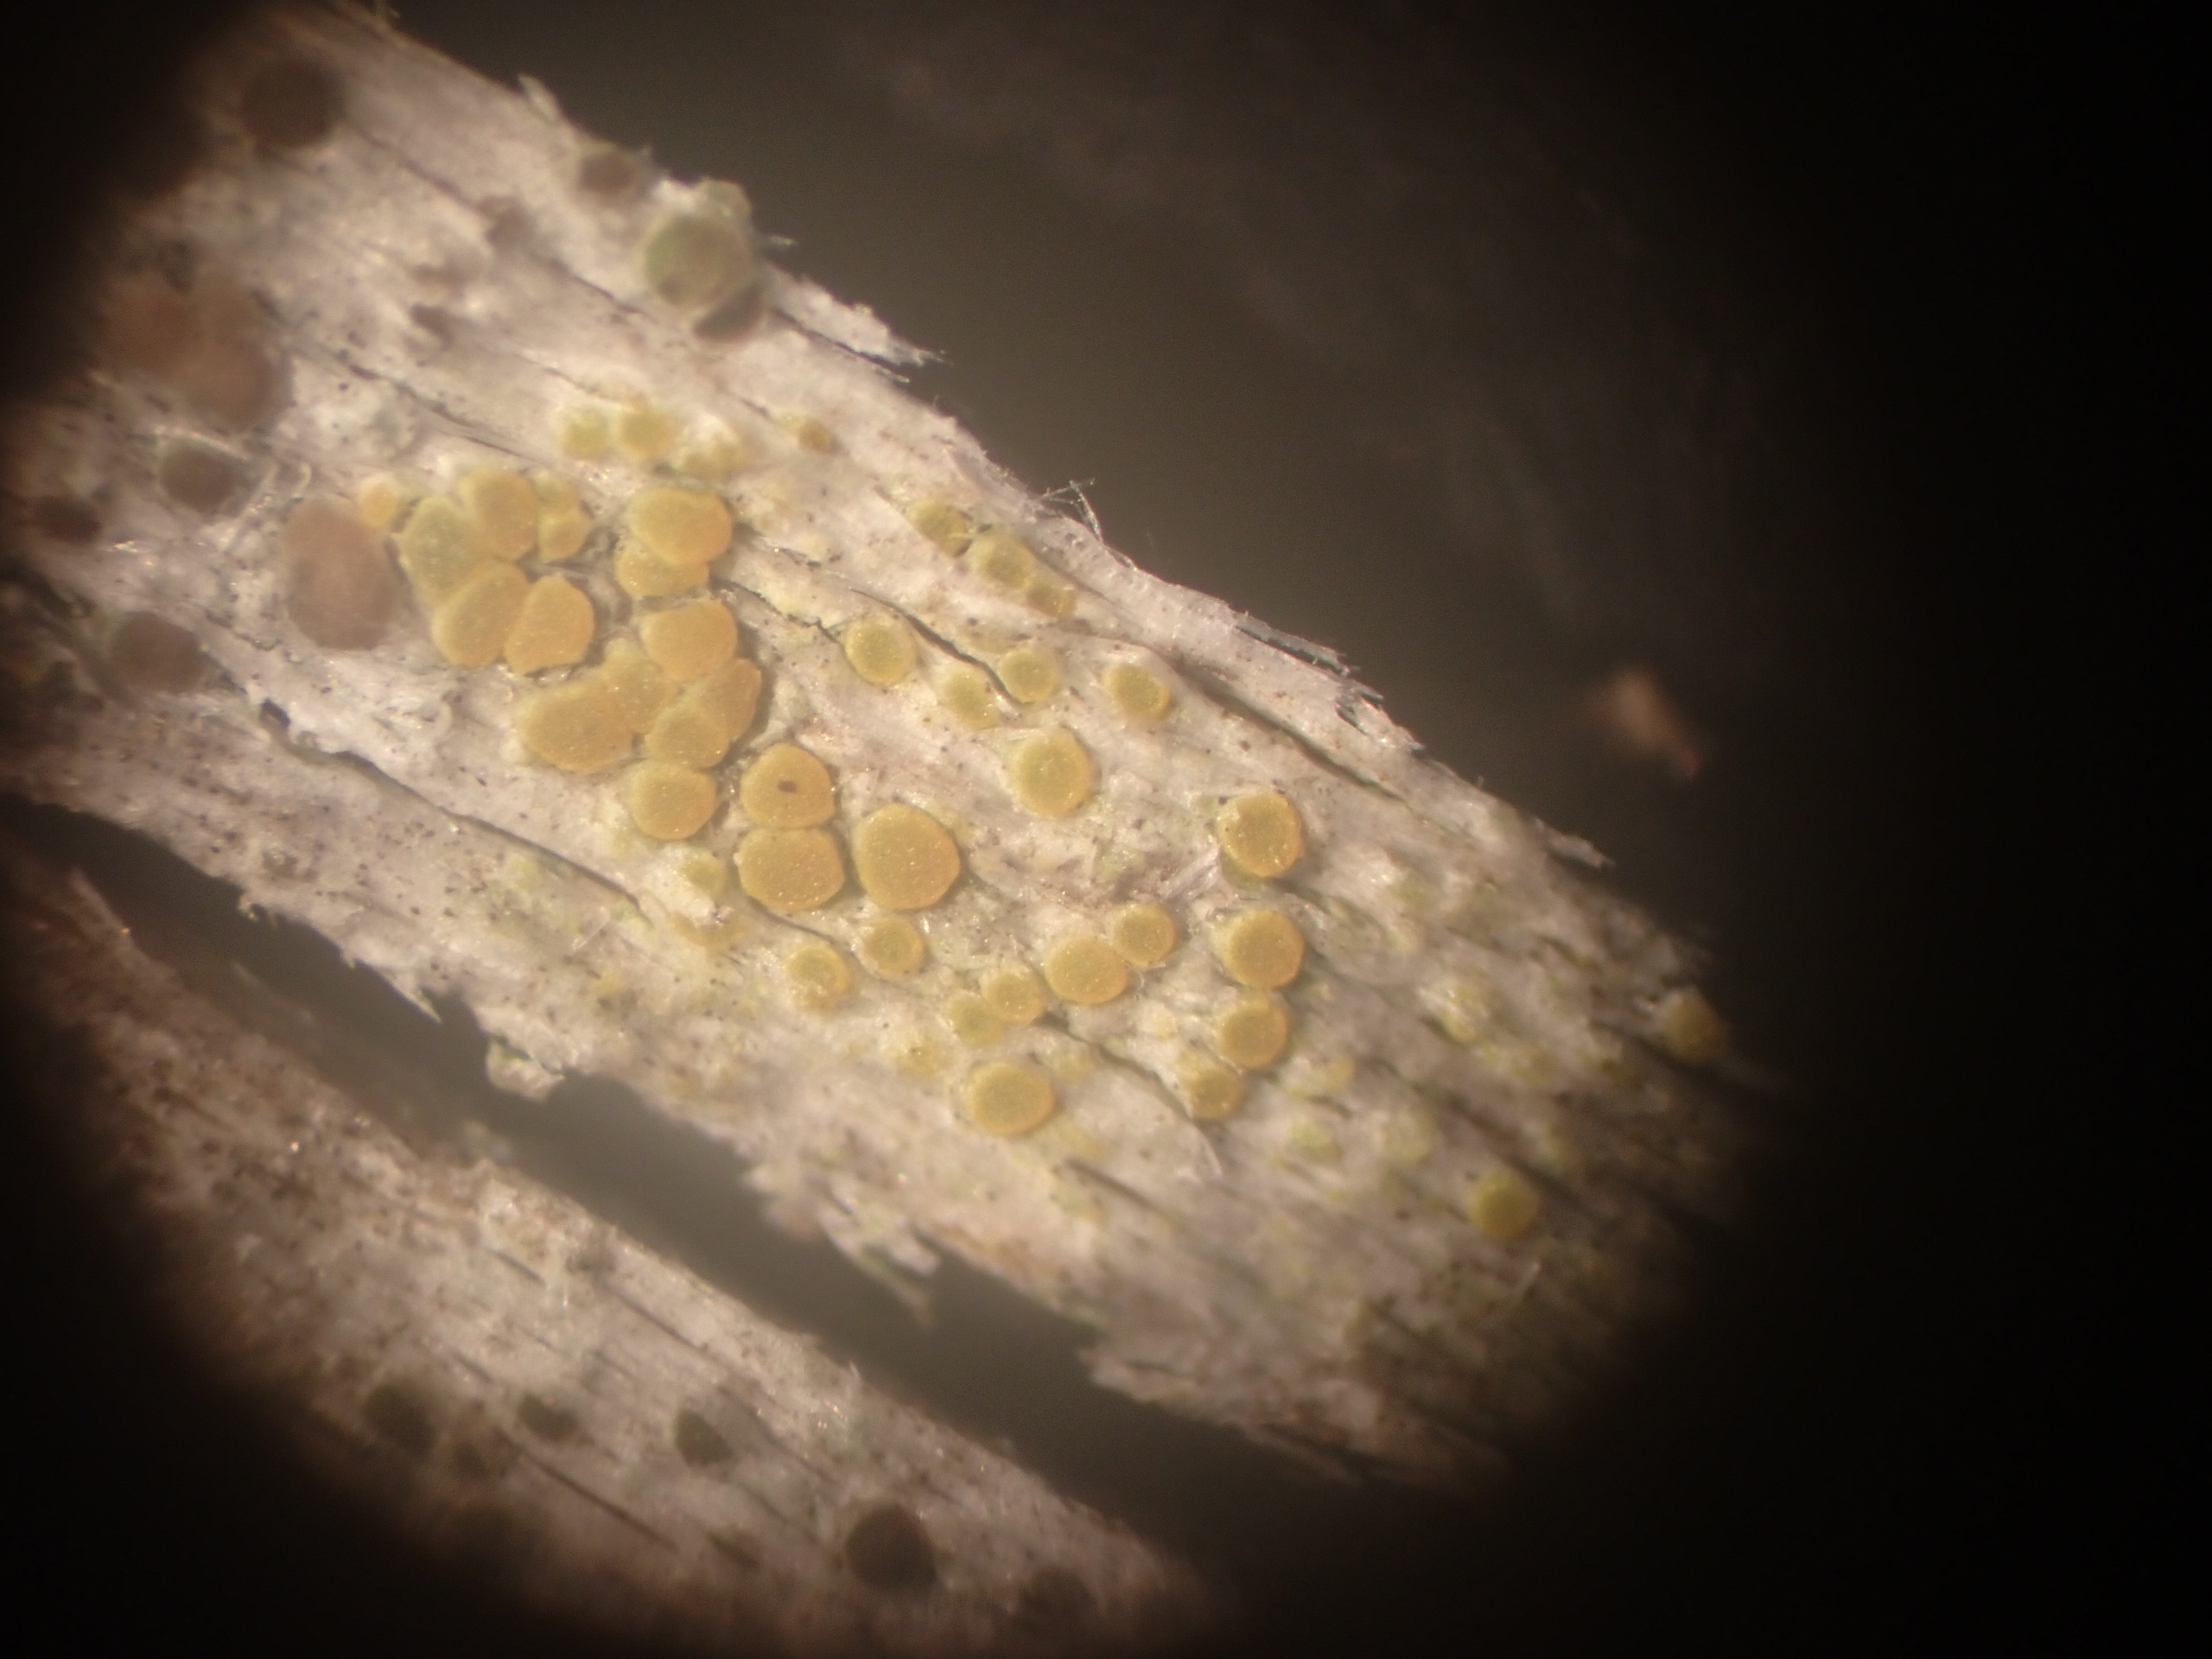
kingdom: Fungi
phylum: Ascomycota
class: Lecanoromycetes
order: Teloschistales
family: Teloschistaceae
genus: Athallia
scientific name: Athallia cerinella
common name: Kvist-orangelav
